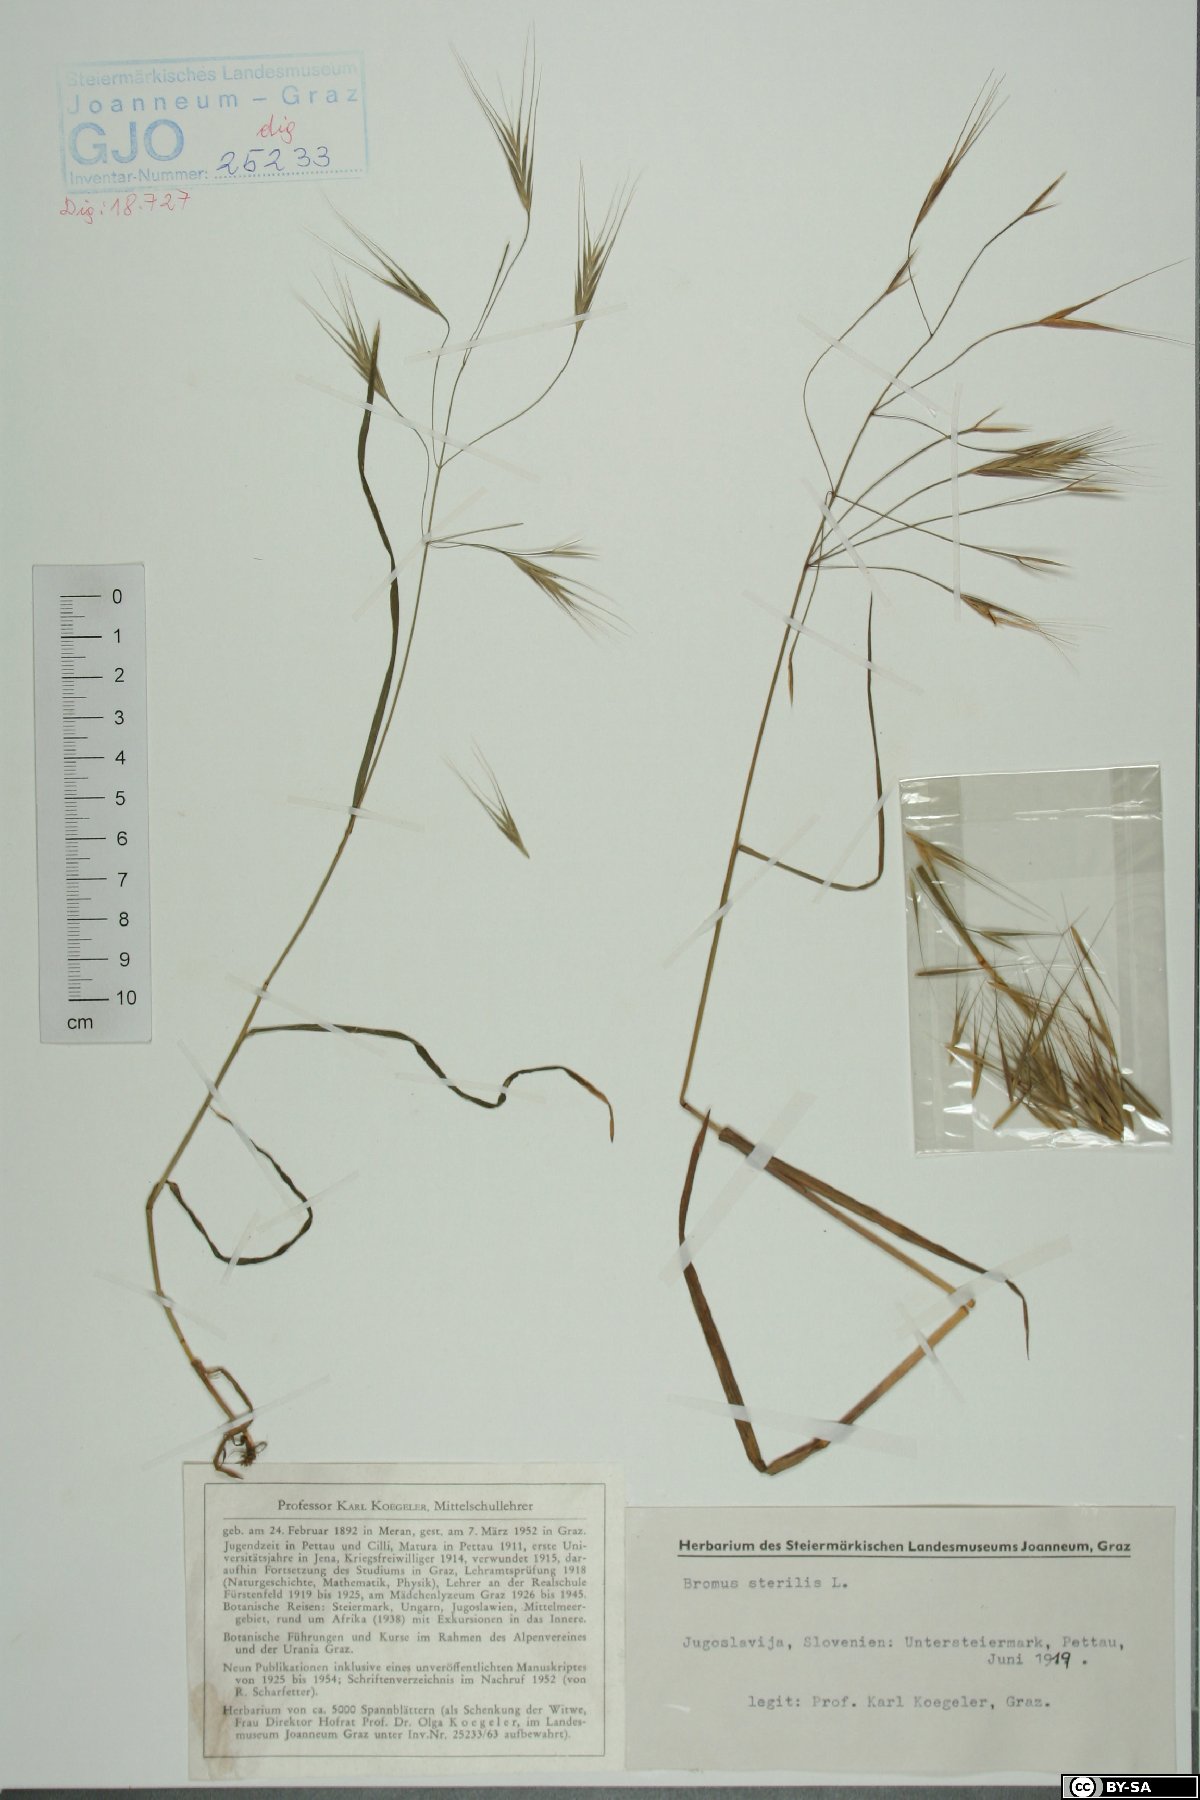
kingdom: Plantae
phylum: Tracheophyta
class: Liliopsida
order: Poales
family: Poaceae
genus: Bromus
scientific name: Bromus sterilis
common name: Poverty brome
